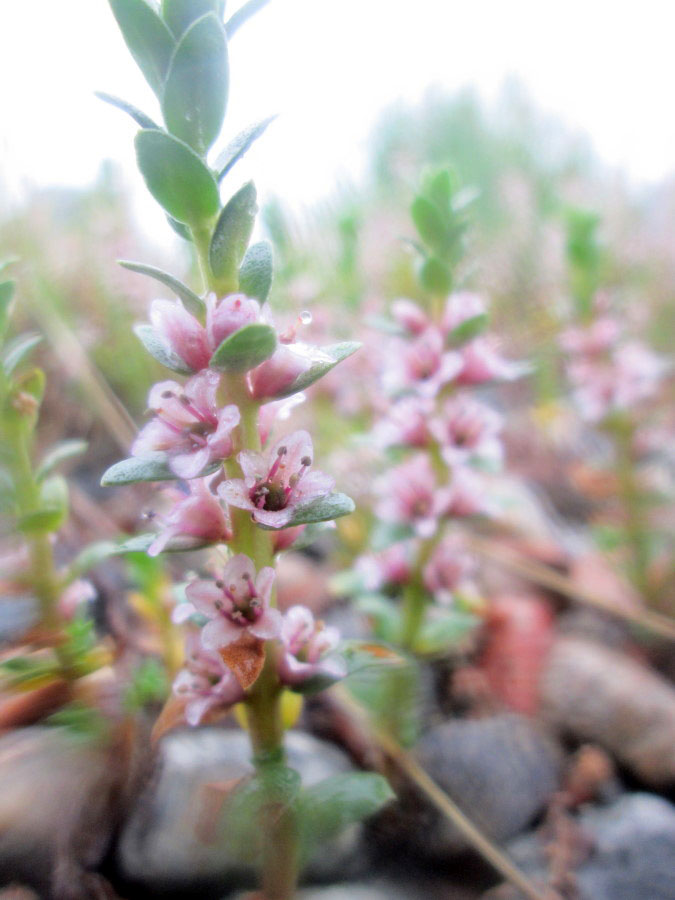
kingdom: Plantae
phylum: Tracheophyta
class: Magnoliopsida
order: Ericales
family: Primulaceae
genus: Lysimachia
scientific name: Lysimachia maritima
